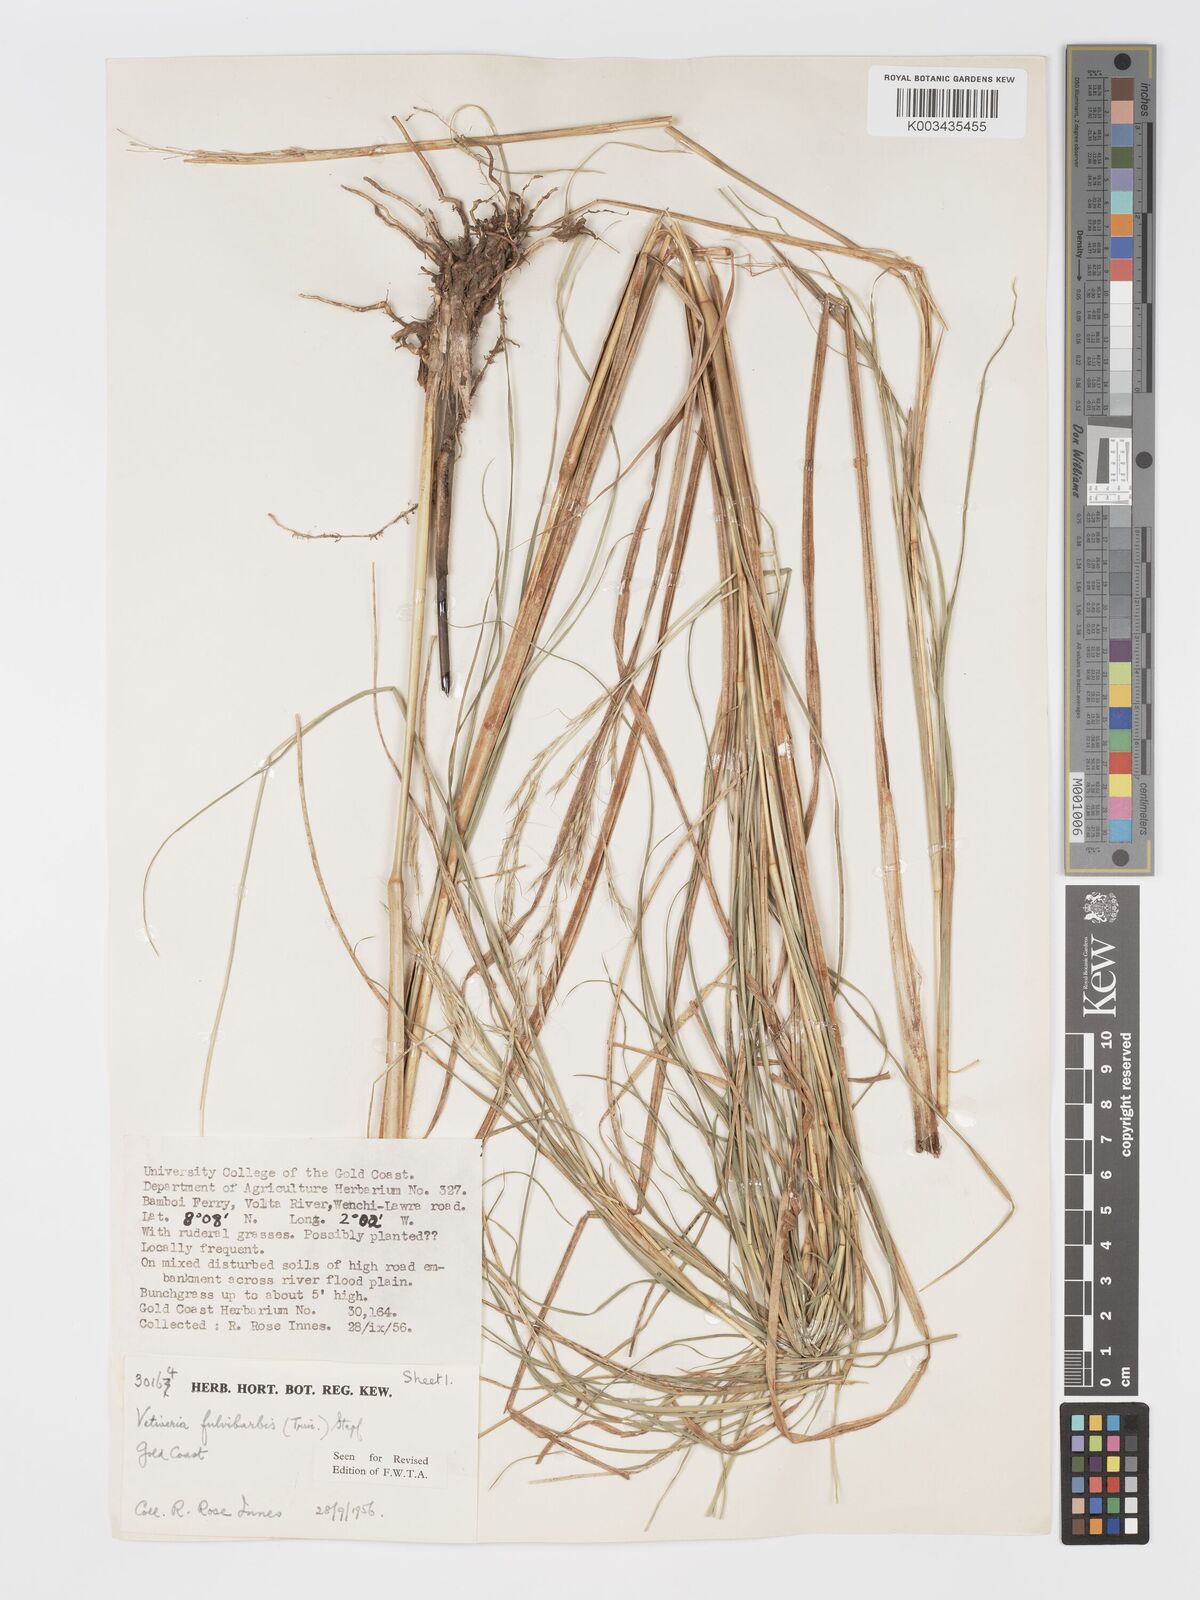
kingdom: Plantae
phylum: Tracheophyta
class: Liliopsida
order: Poales
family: Poaceae
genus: Chrysopogon
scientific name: Chrysopogon fulvibarbis
